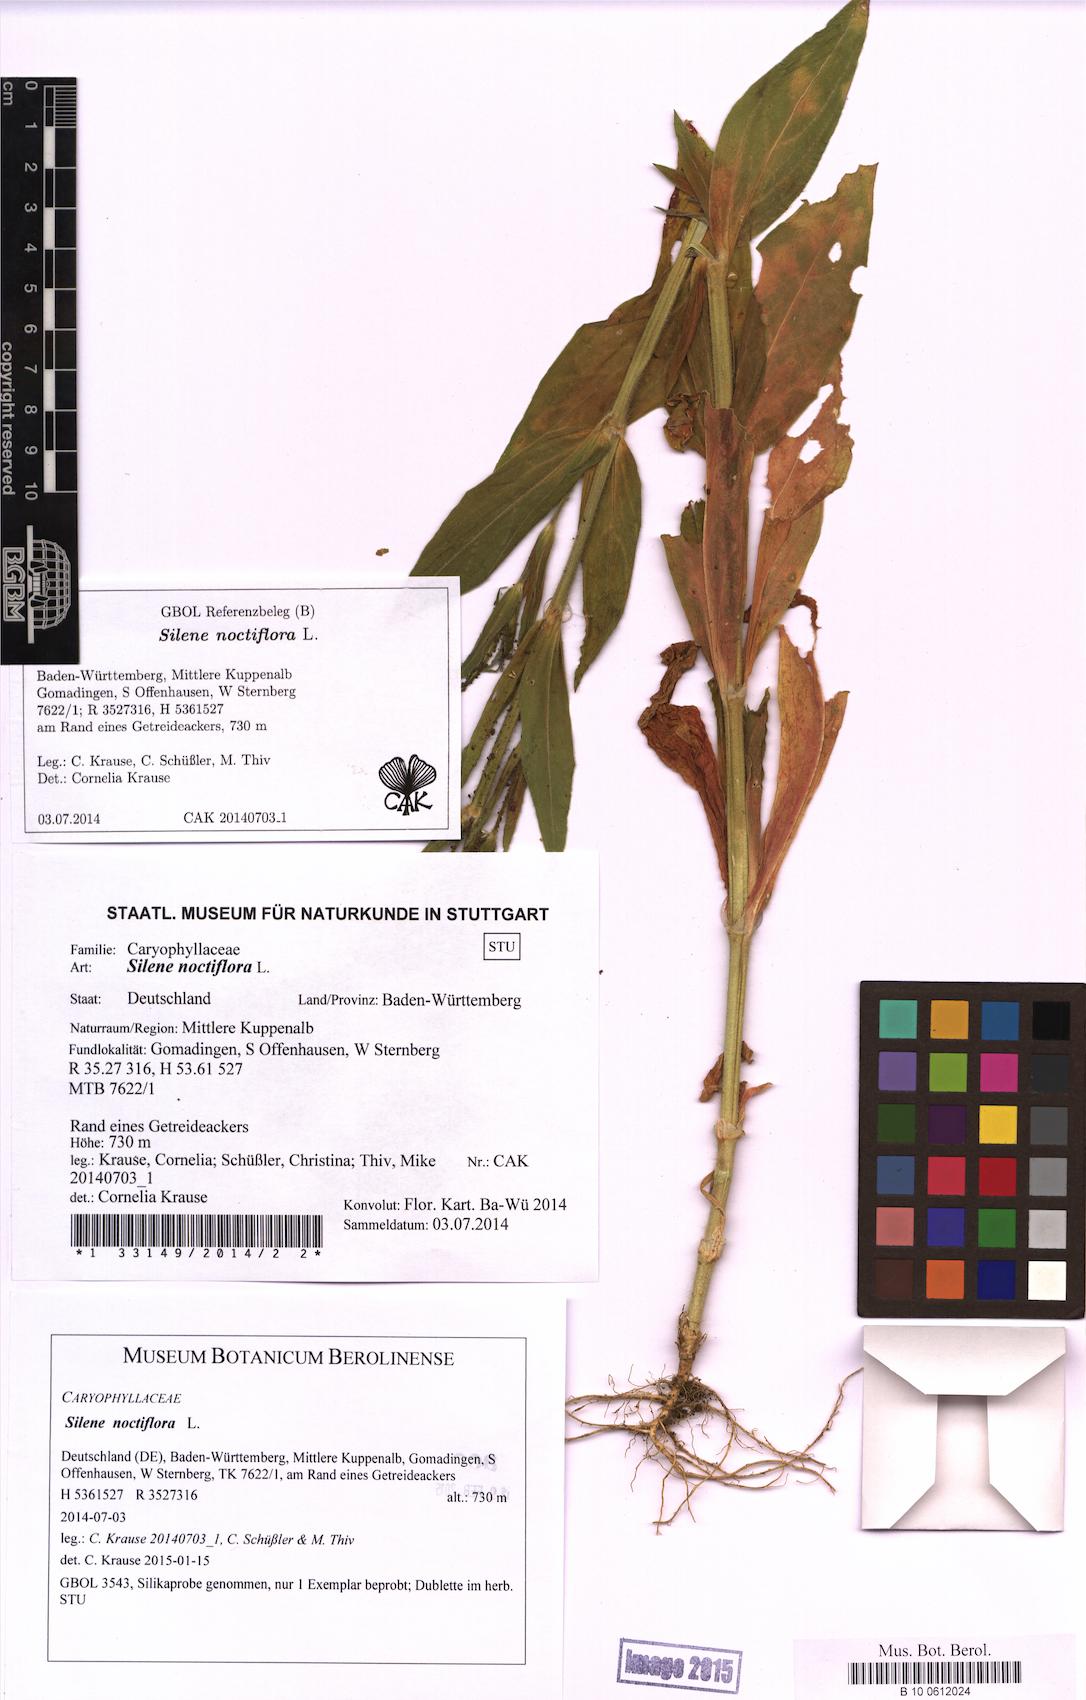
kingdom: Plantae
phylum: Tracheophyta
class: Magnoliopsida
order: Caryophyllales
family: Caryophyllaceae
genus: Silene
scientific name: Silene noctiflora
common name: Night-flowering catchfly
